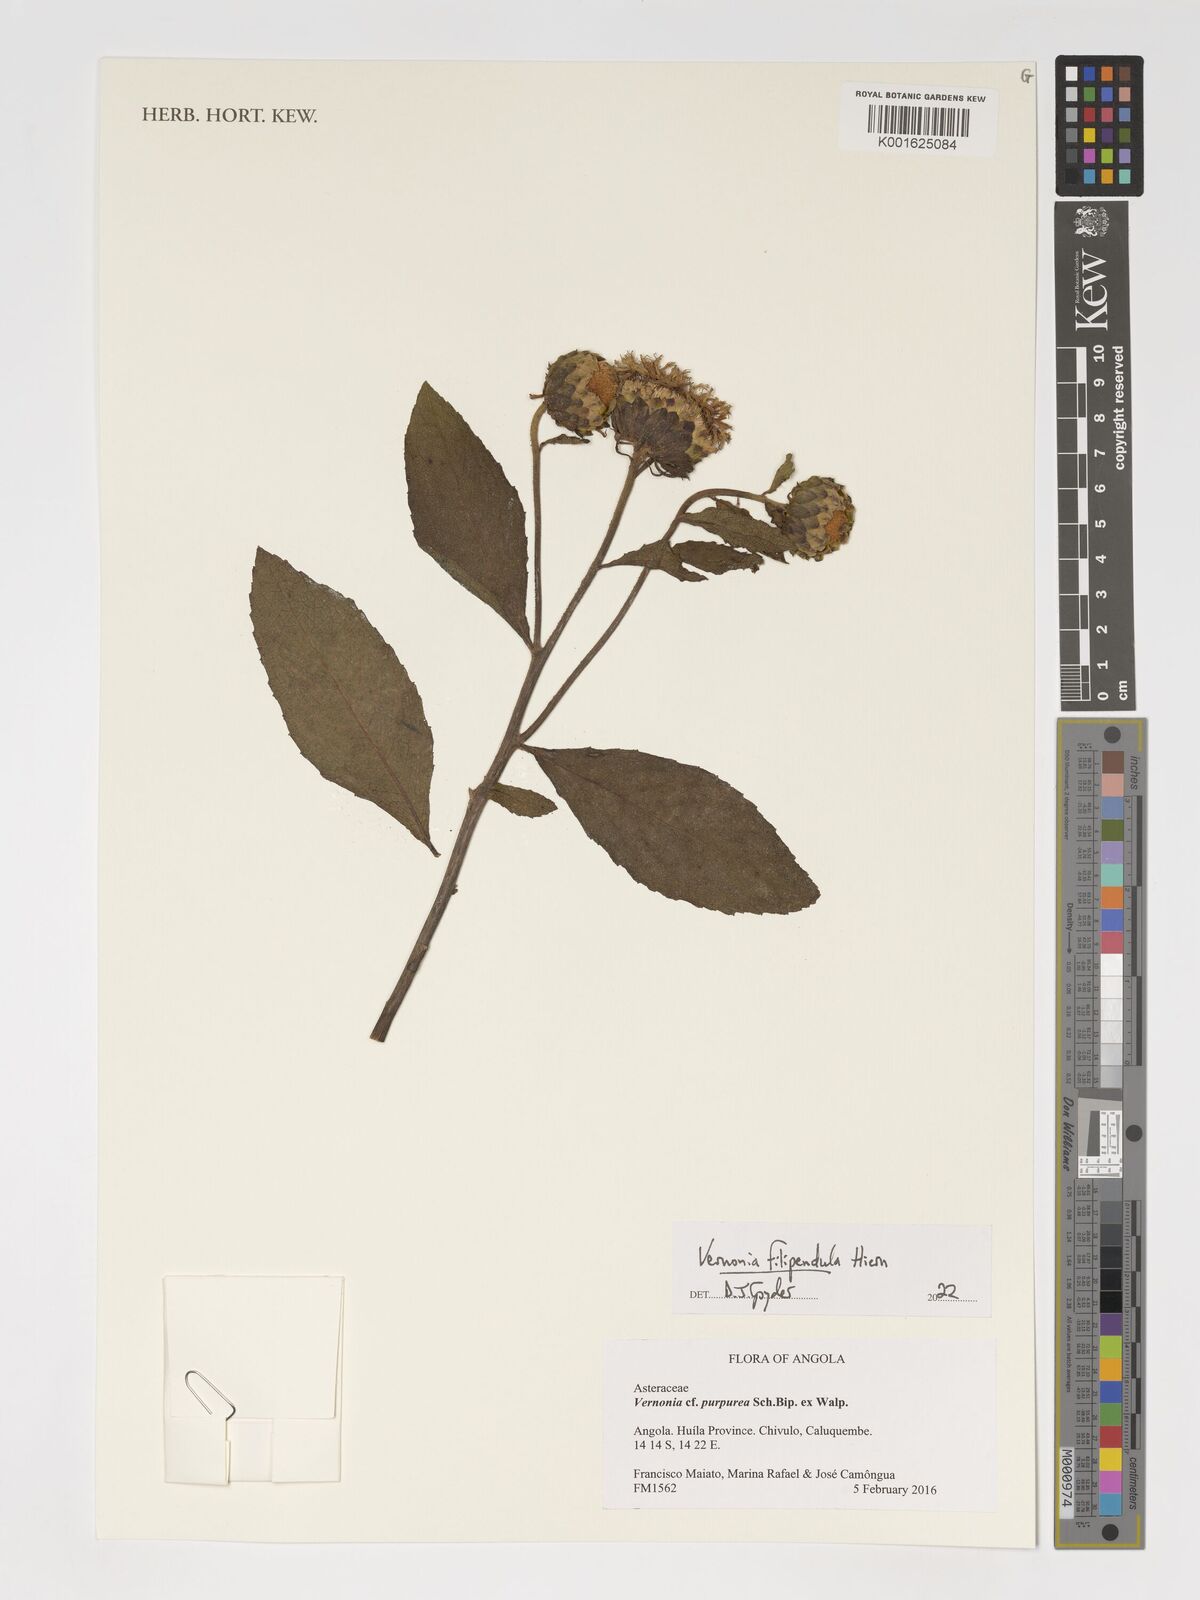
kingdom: Plantae
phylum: Tracheophyta
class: Magnoliopsida
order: Asterales
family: Asteraceae
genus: Baccharoides
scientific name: Baccharoides filipendula
